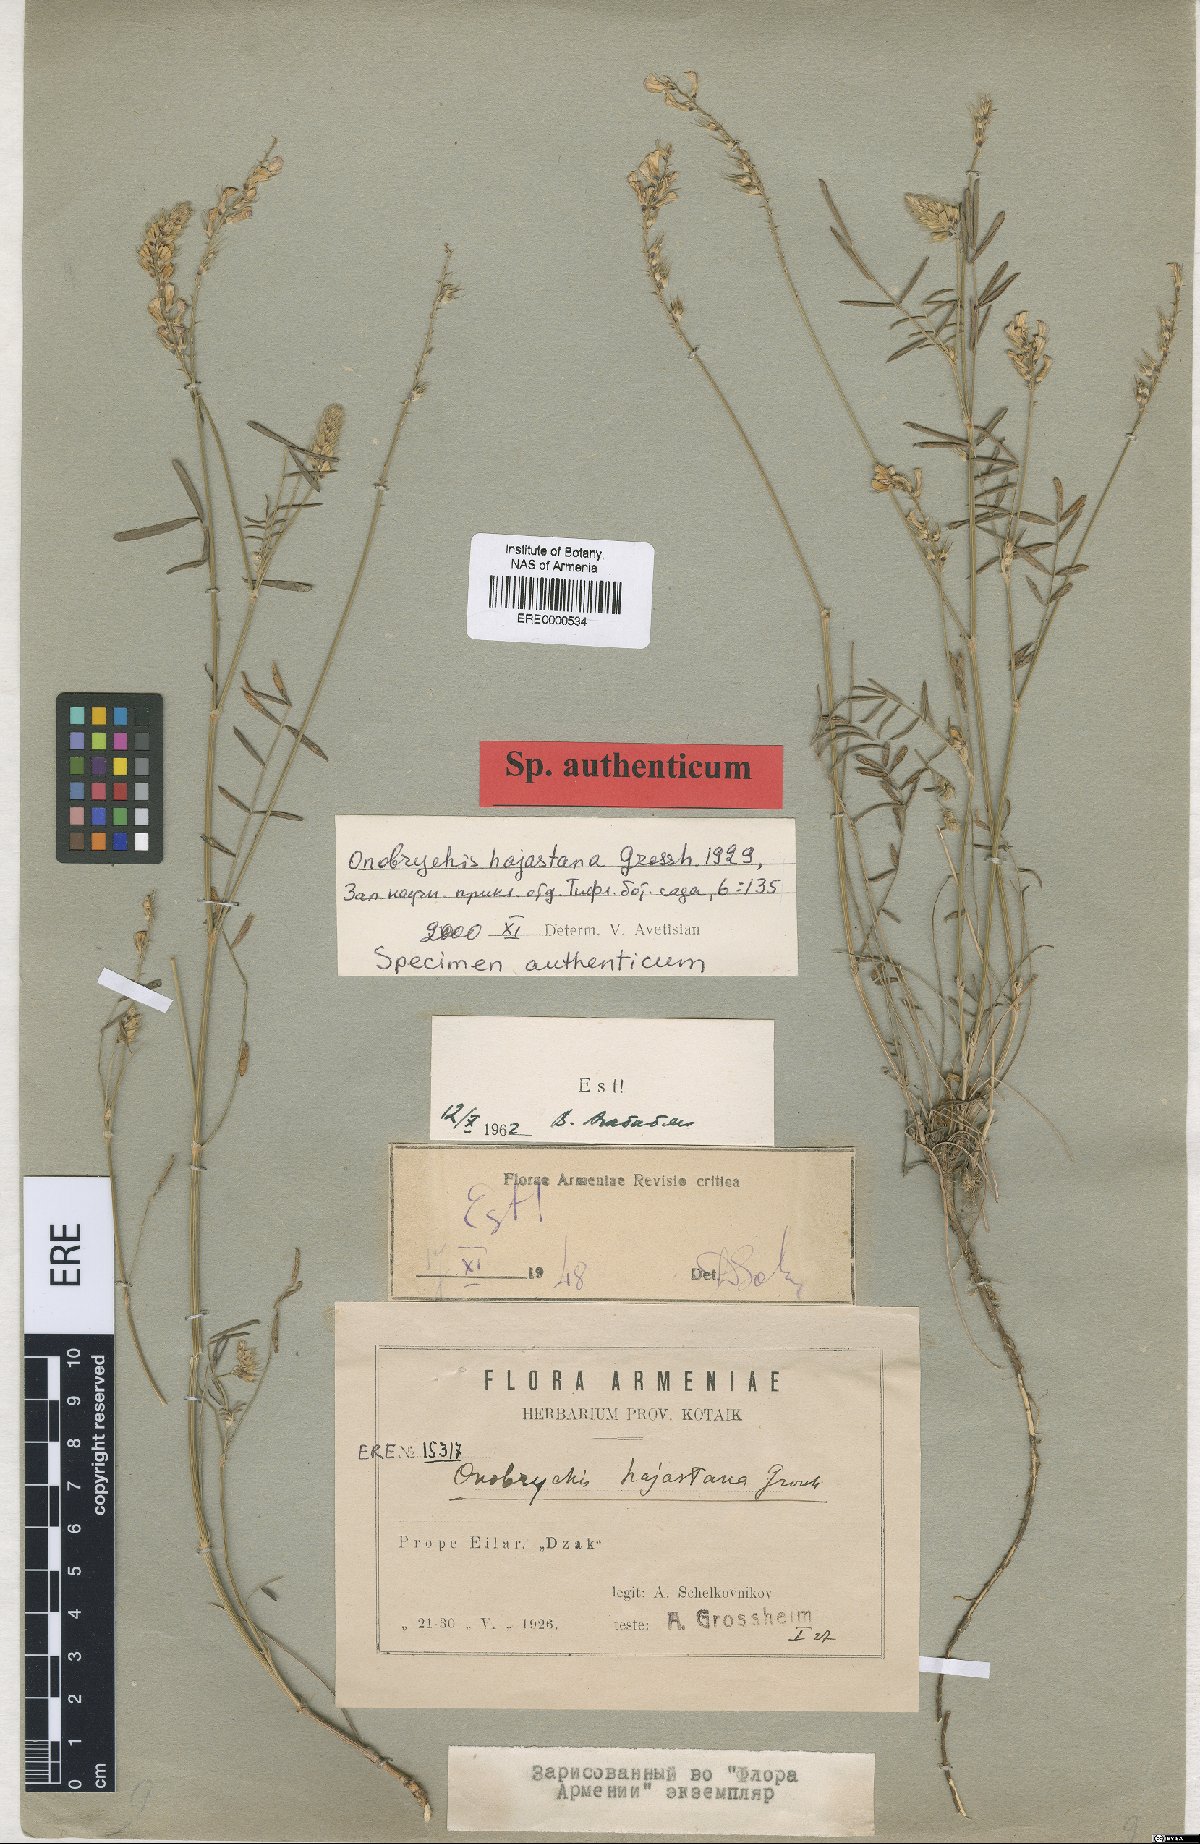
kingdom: Plantae
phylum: Tracheophyta
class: Magnoliopsida
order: Fabales
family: Fabaceae
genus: Onobrychis
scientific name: Onobrychis hajastana
